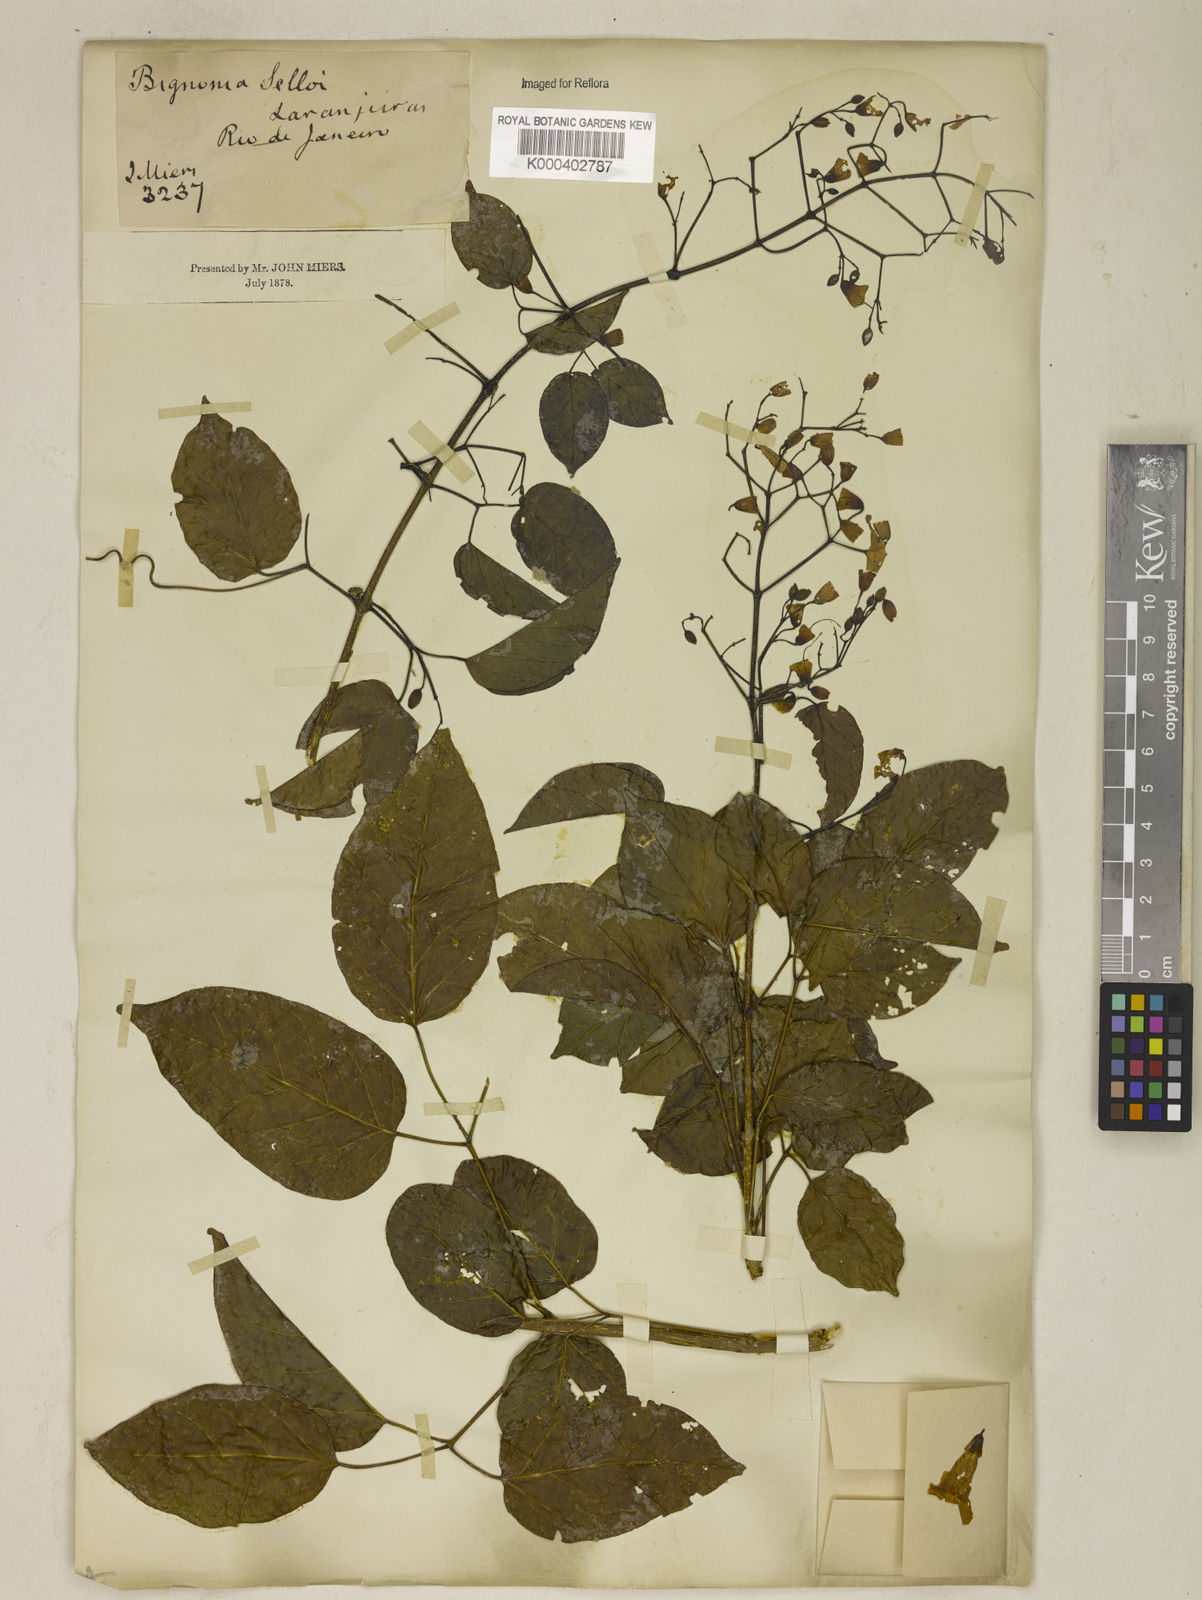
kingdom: Plantae
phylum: Tracheophyta
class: Magnoliopsida
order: Lamiales
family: Bignoniaceae
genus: Tanaecium
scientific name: Tanaecium selloi
